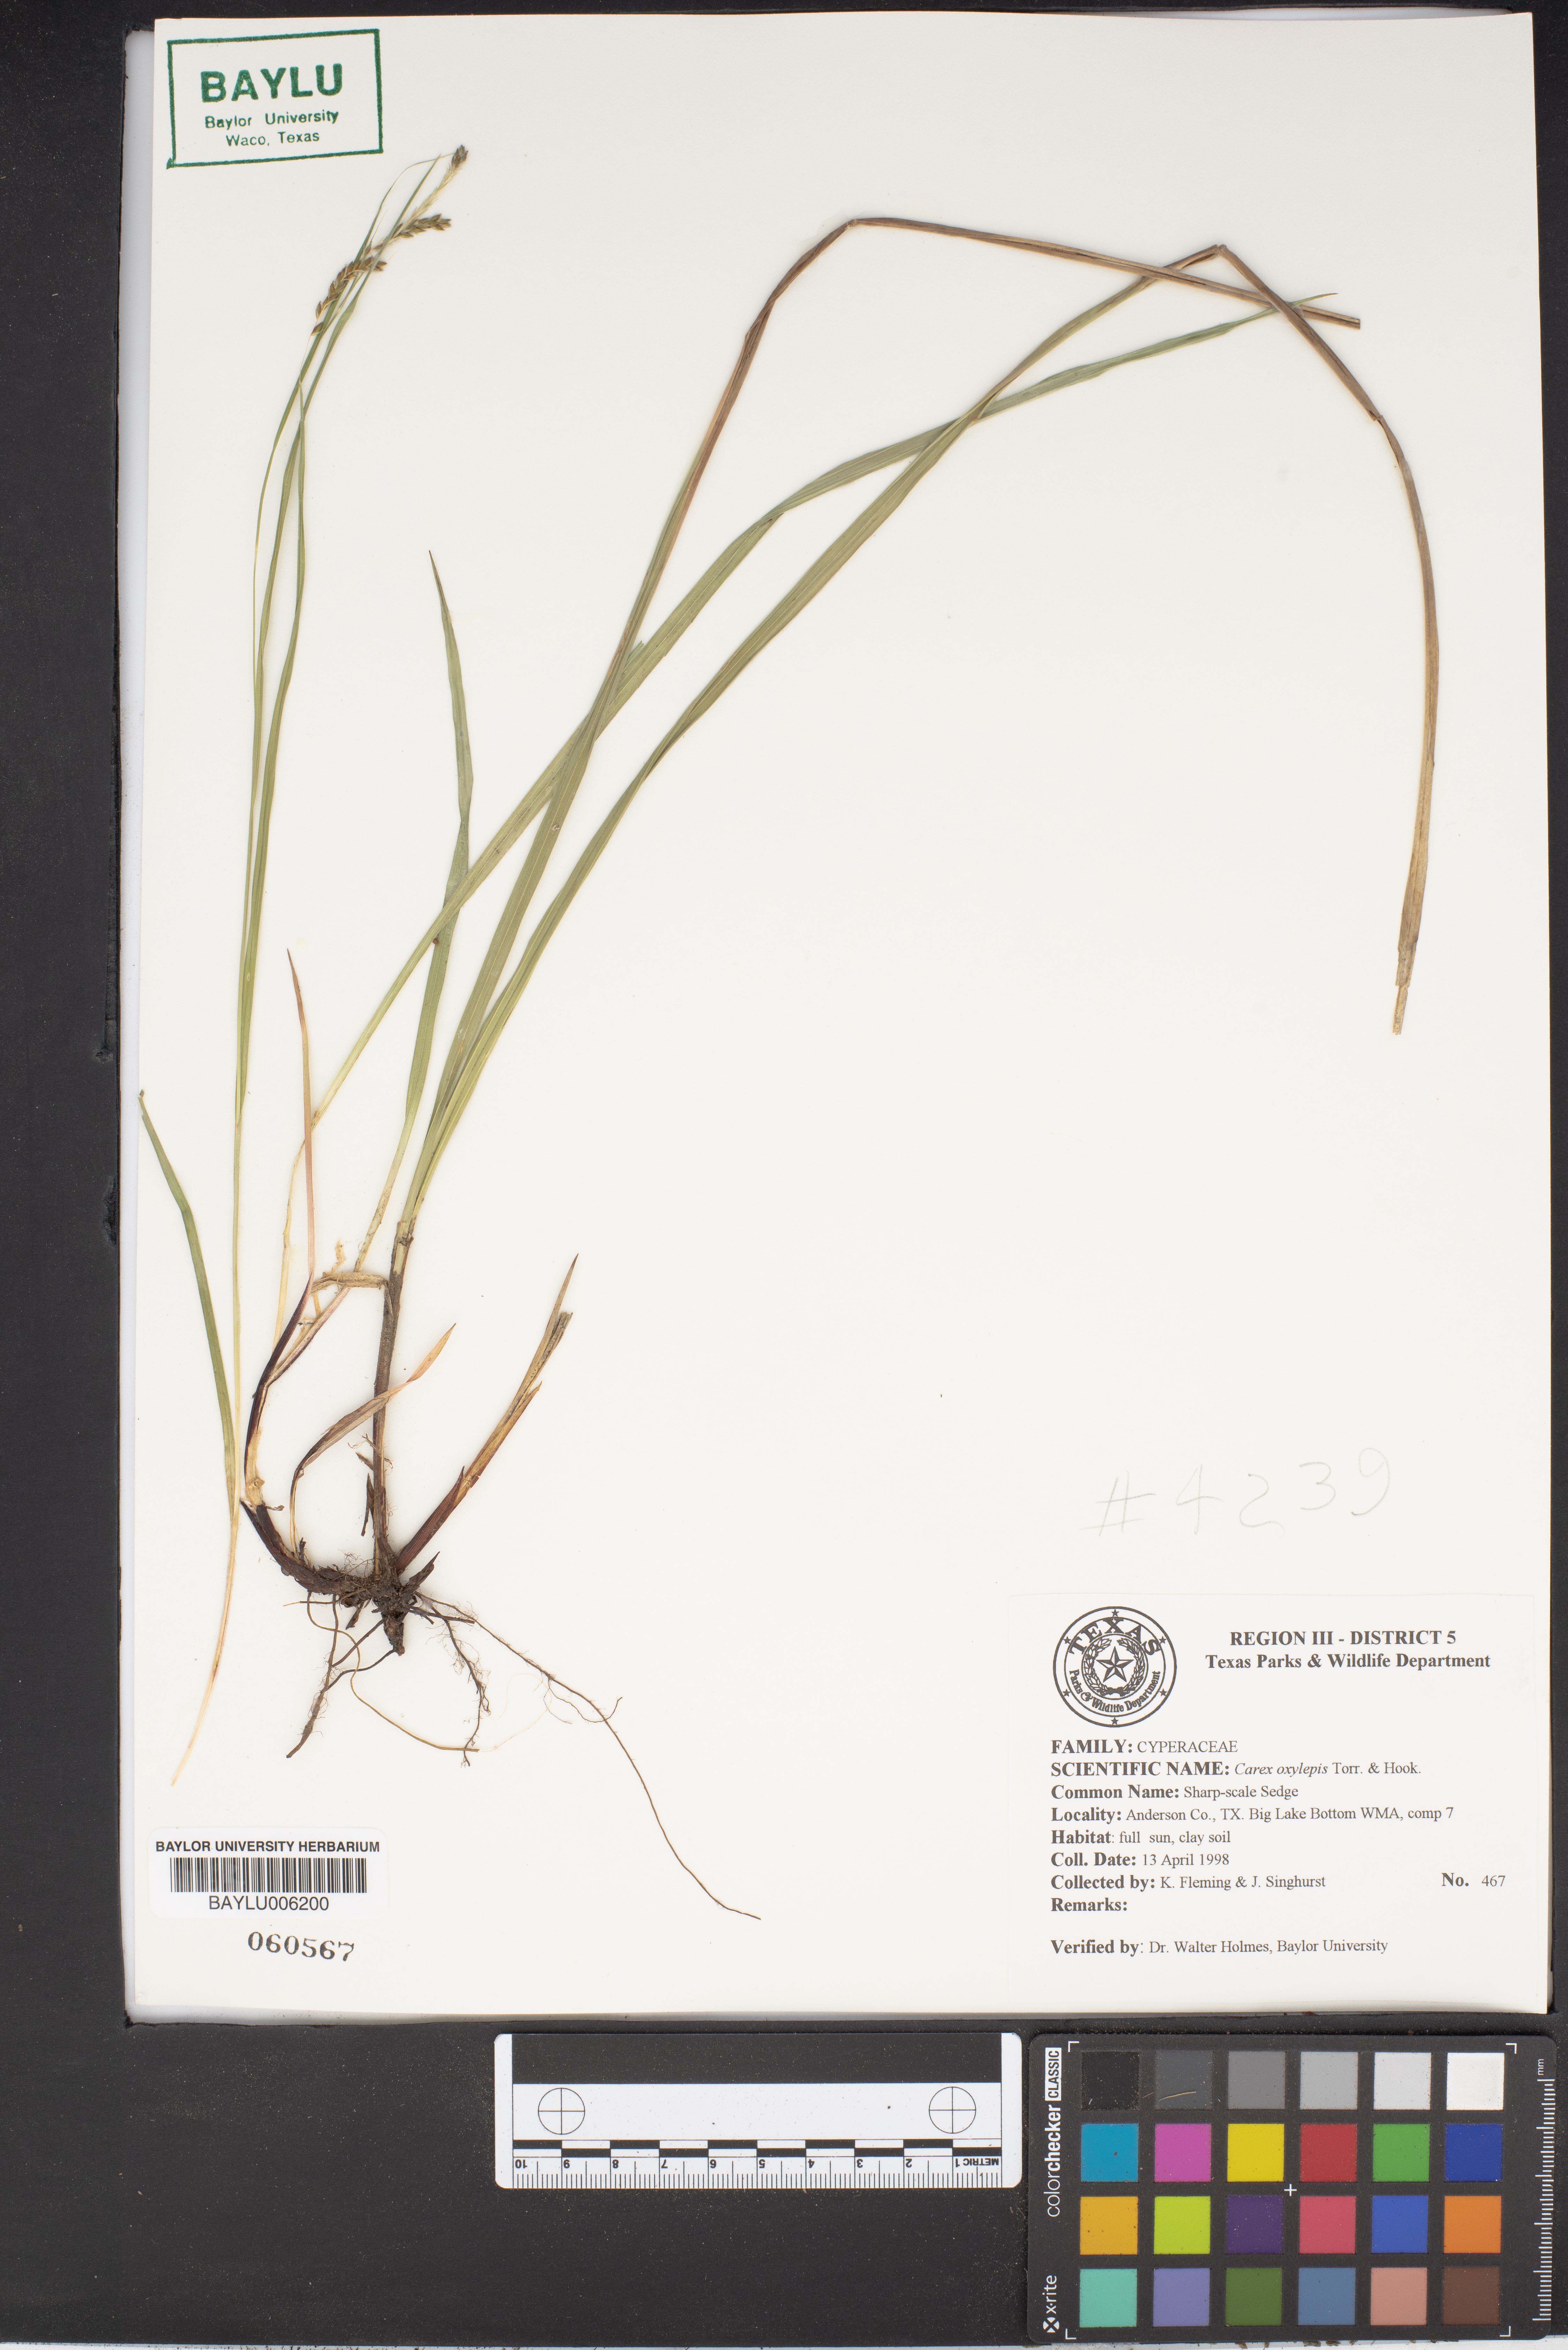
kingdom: Plantae
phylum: Tracheophyta
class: Liliopsida
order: Poales
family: Cyperaceae
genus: Carex
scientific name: Carex oxylepis
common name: Sharpscale sedge
